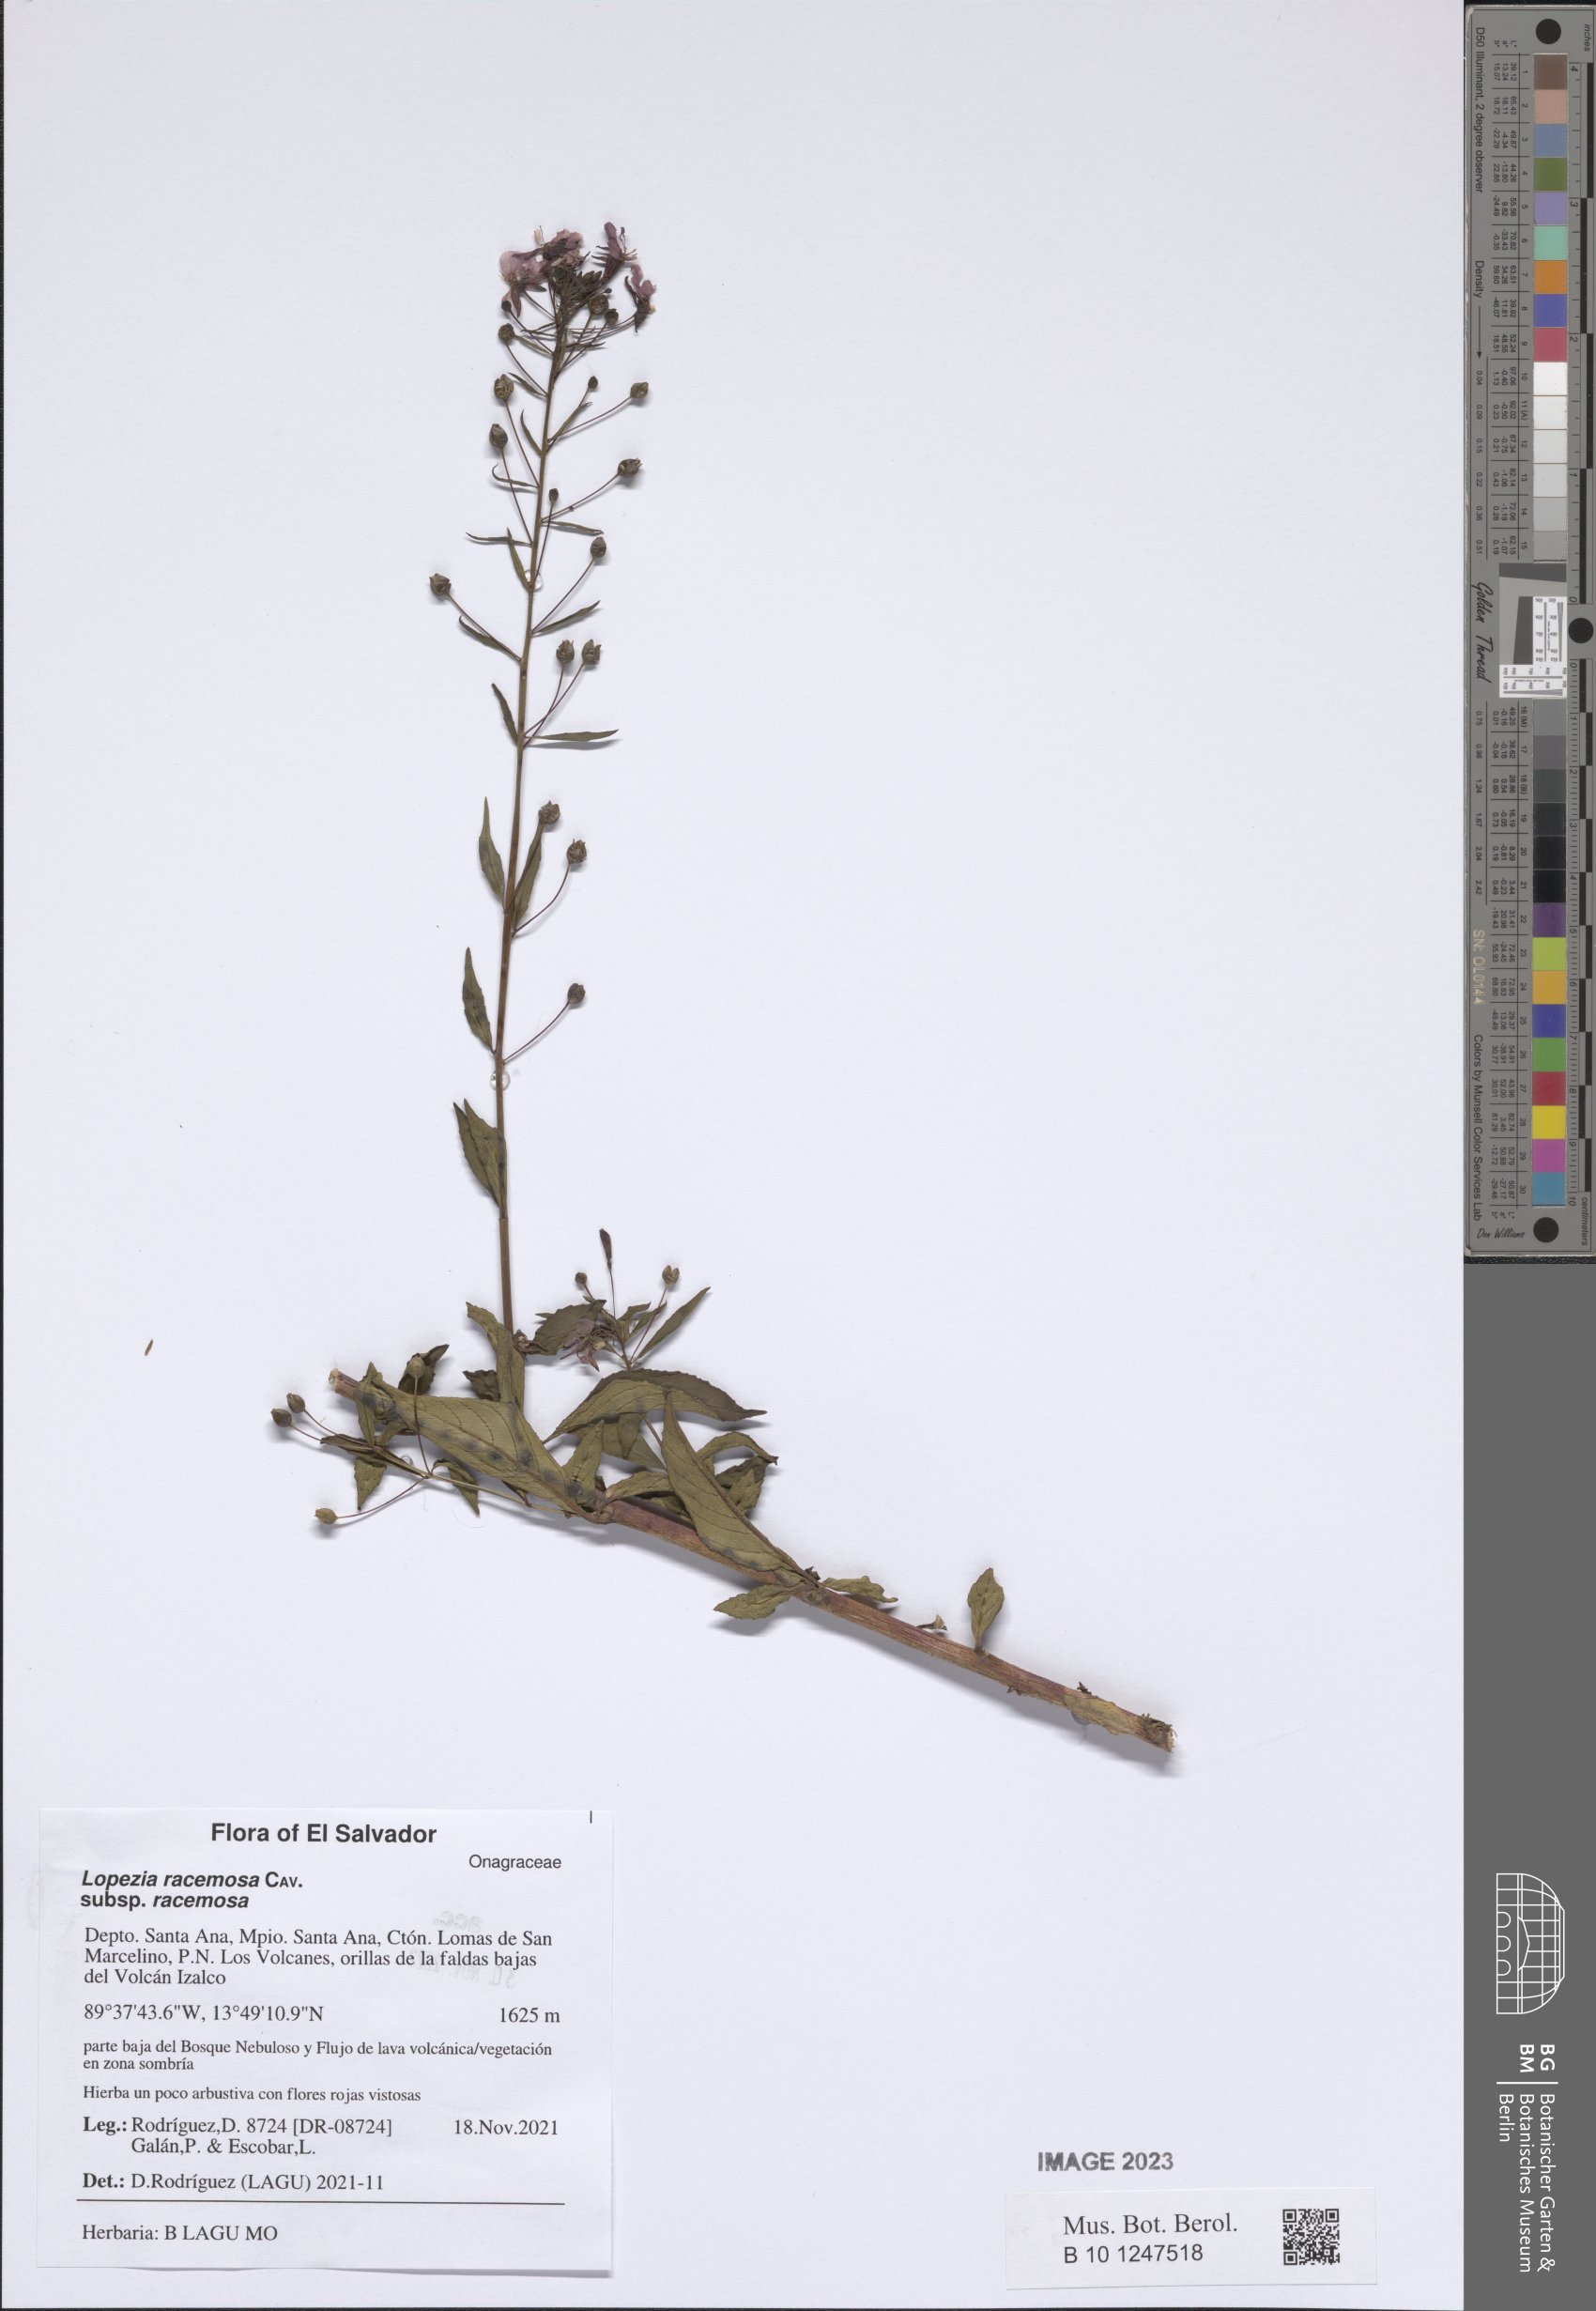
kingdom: Plantae
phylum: Tracheophyta
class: Magnoliopsida
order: Myrtales
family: Onagraceae
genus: Lopezia
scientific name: Lopezia racemosa
